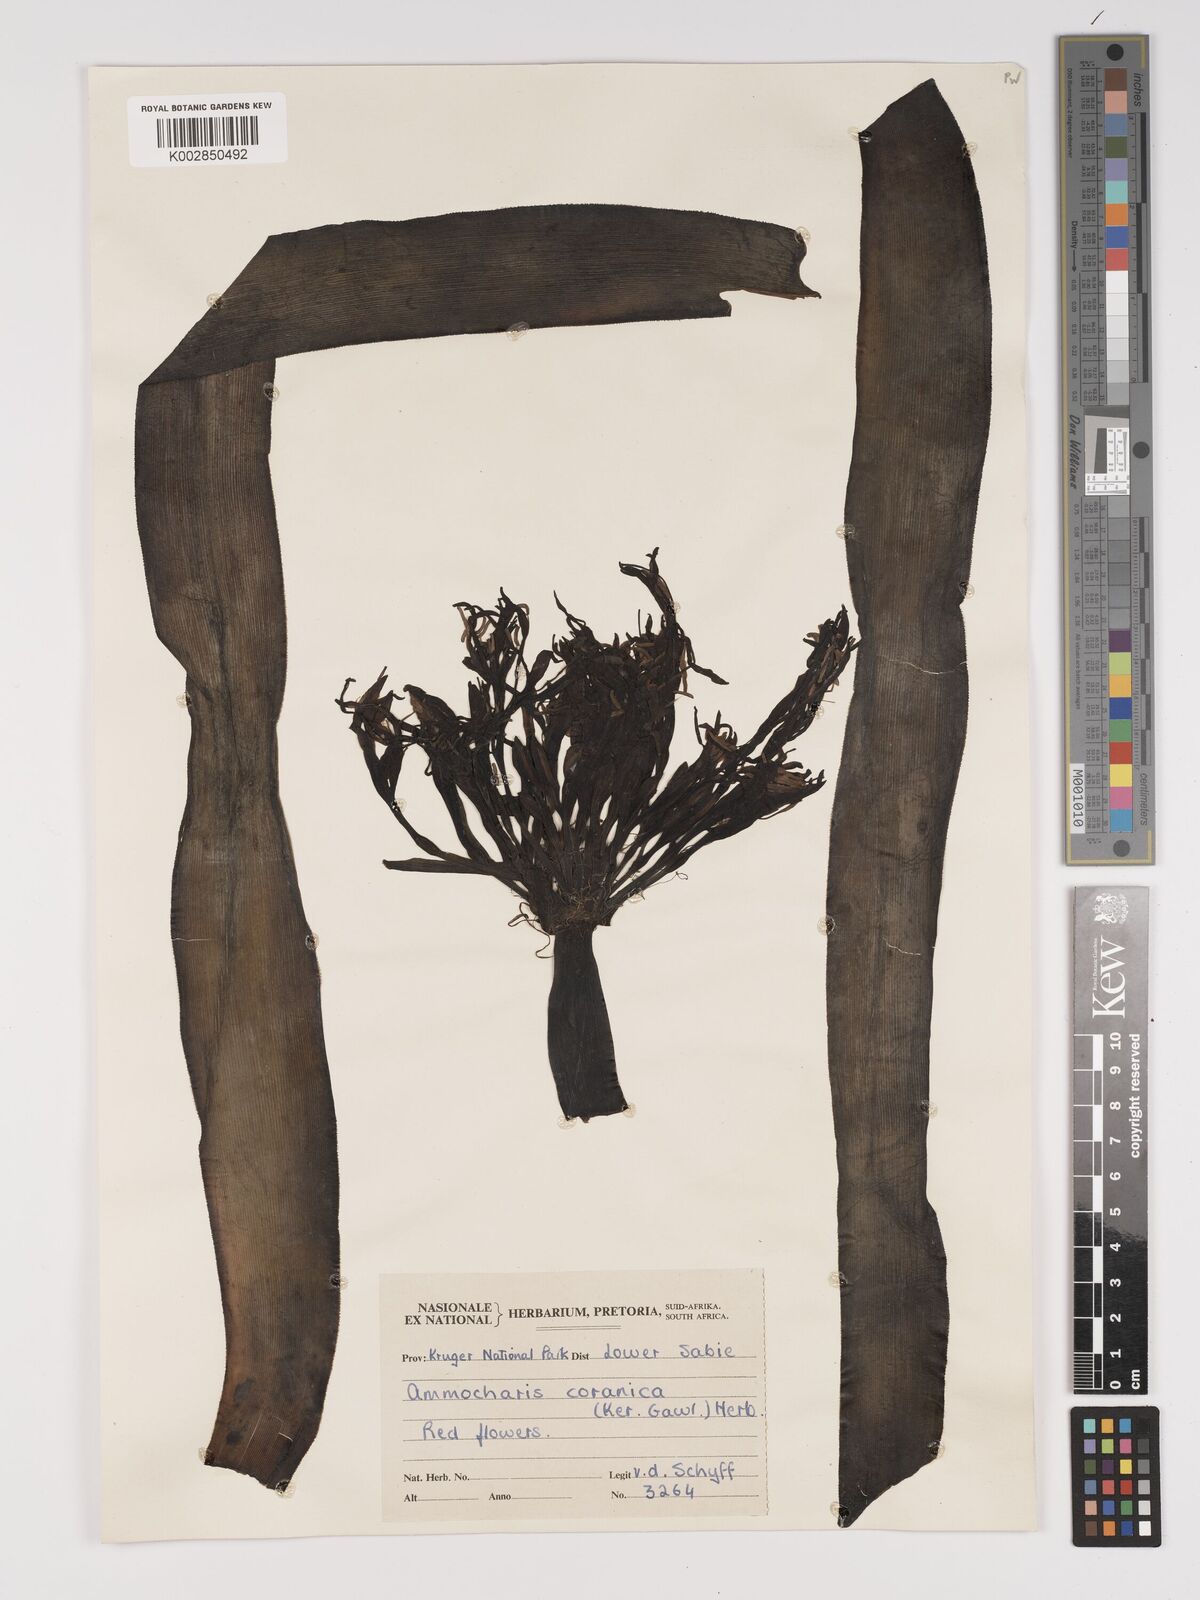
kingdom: Plantae
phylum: Tracheophyta
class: Liliopsida
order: Asparagales
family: Amaryllidaceae
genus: Ammocharis
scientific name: Ammocharis coranica
